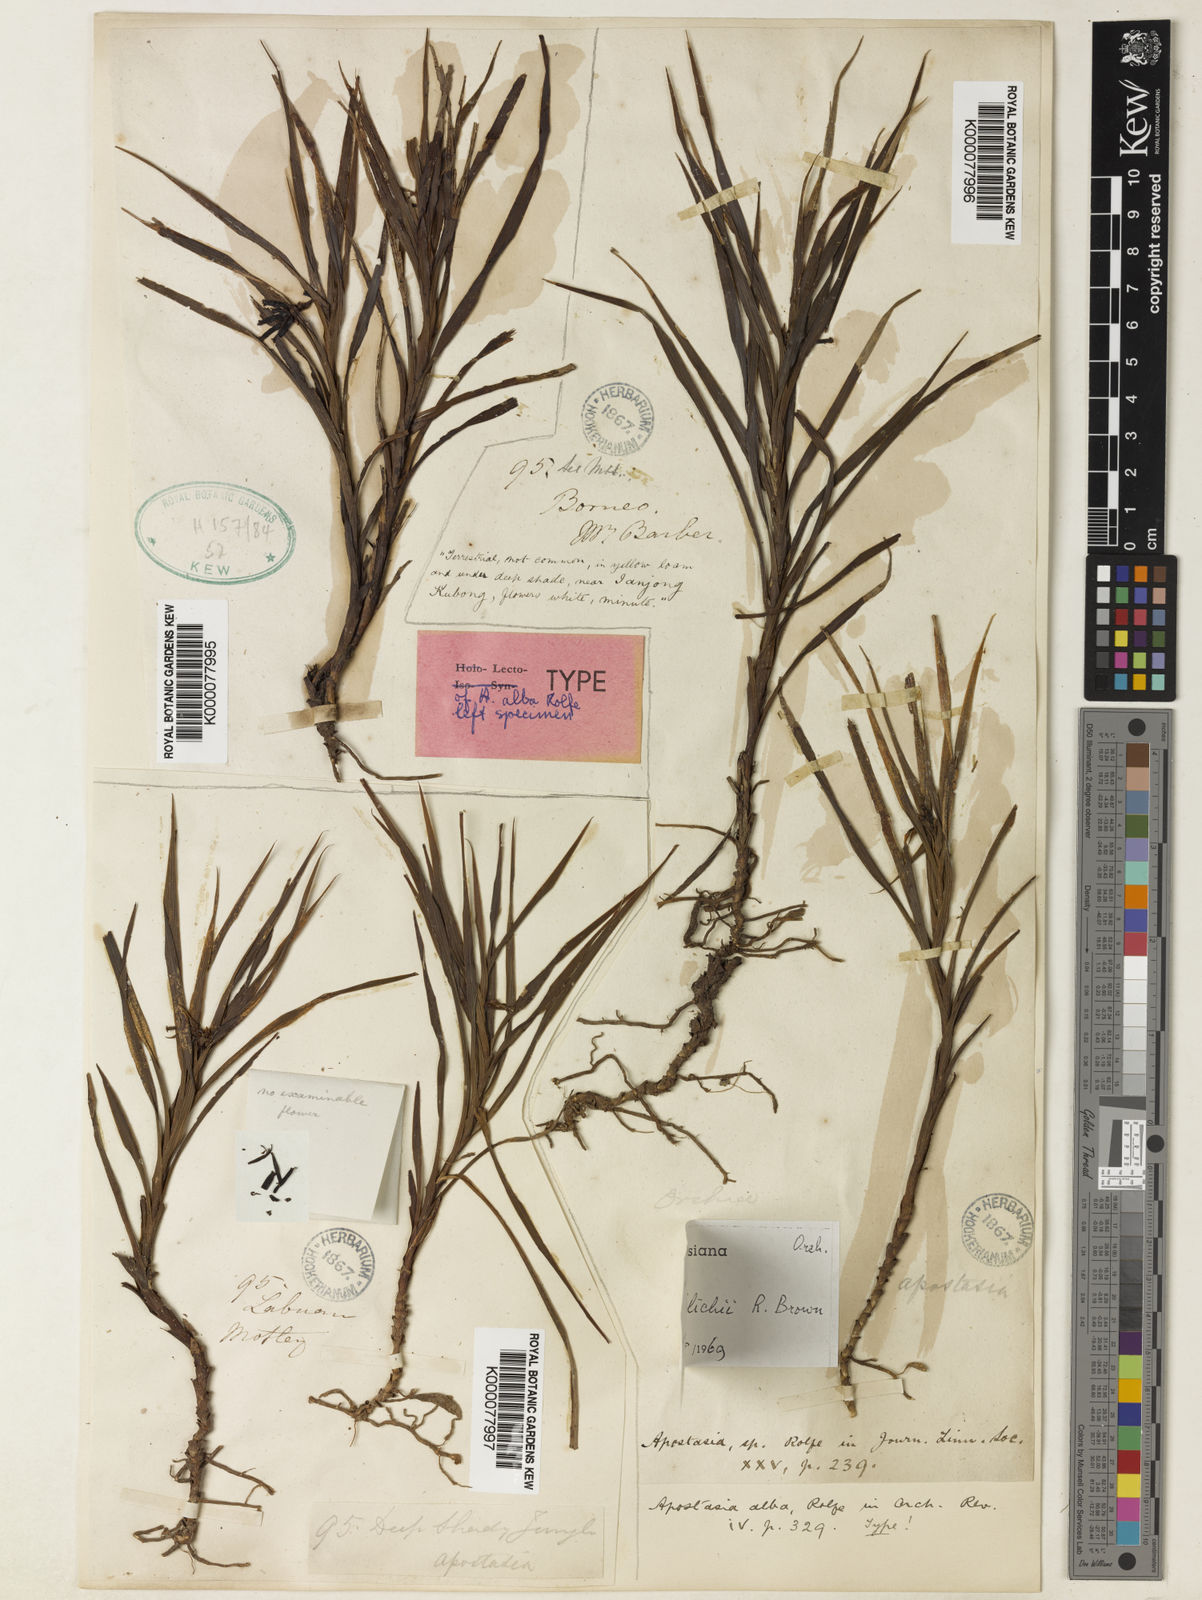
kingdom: Plantae
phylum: Tracheophyta
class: Liliopsida
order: Asparagales
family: Orchidaceae
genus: Apostasia
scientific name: Apostasia wallichii
